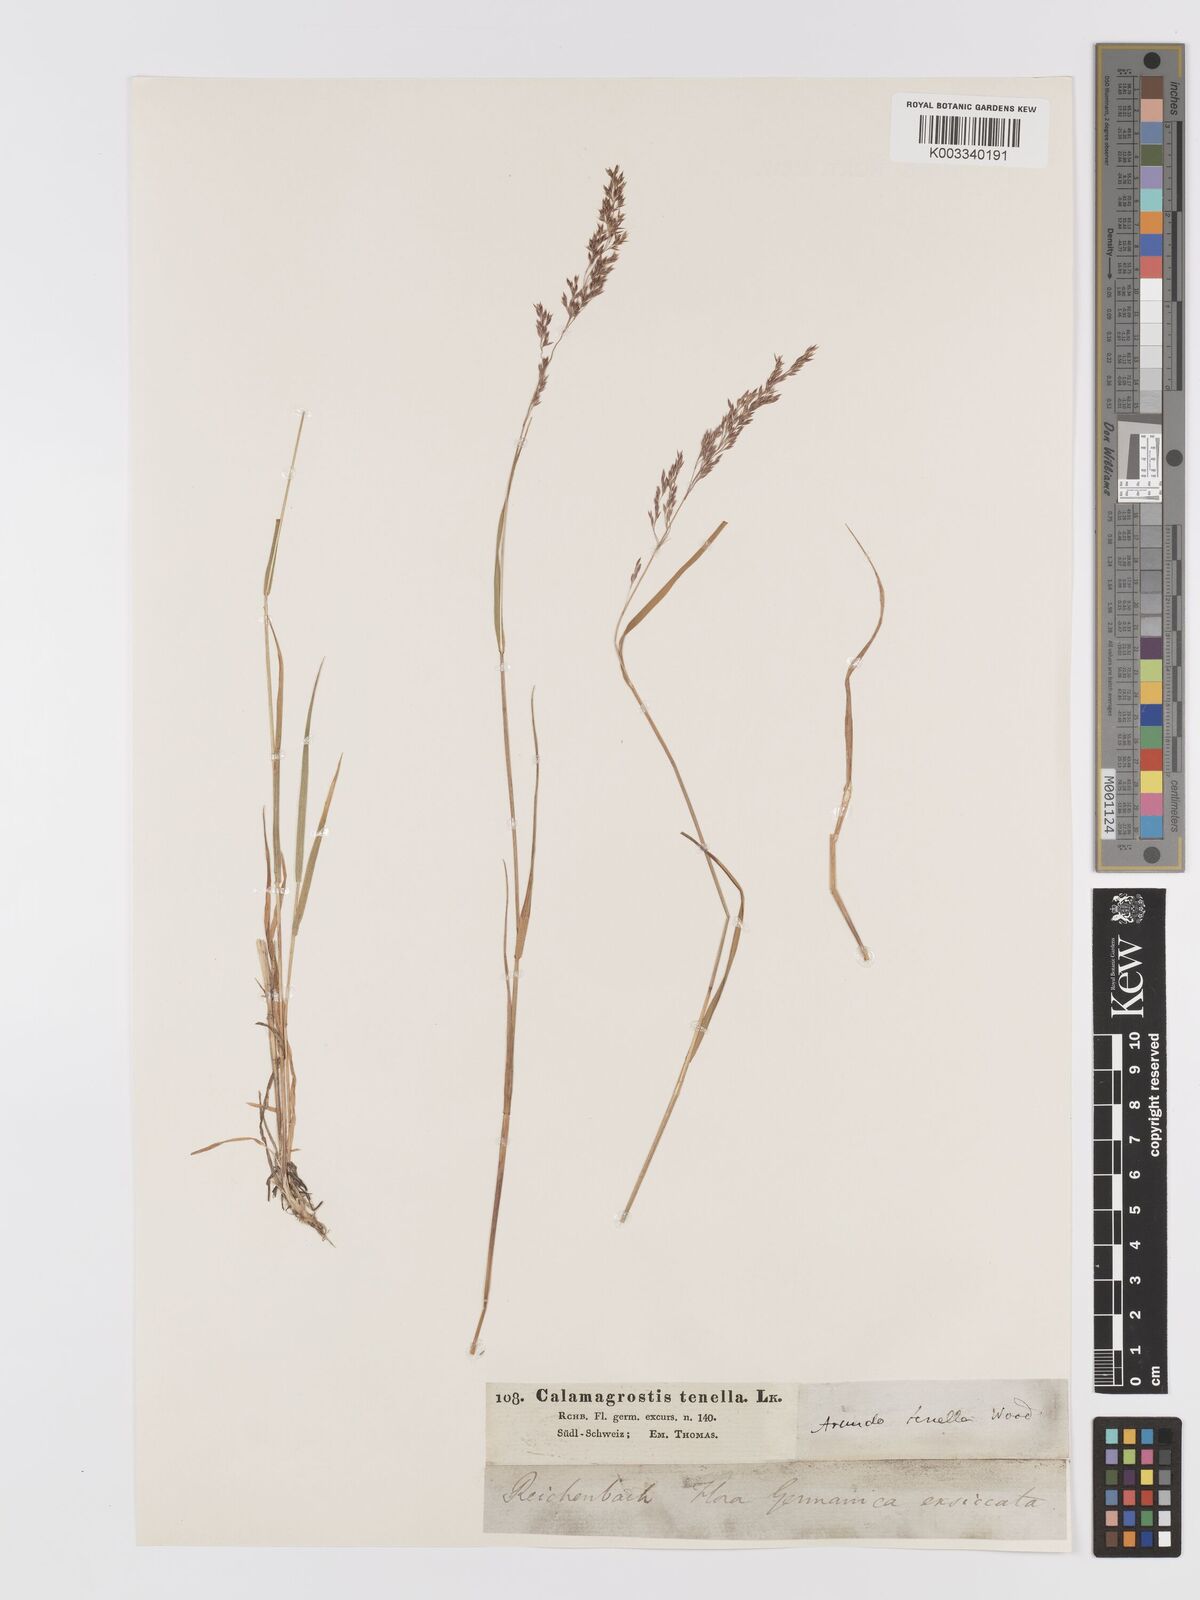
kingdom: Plantae
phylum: Tracheophyta
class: Liliopsida
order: Poales
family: Poaceae
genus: Agrostis
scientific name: Agrostis schraderiana
